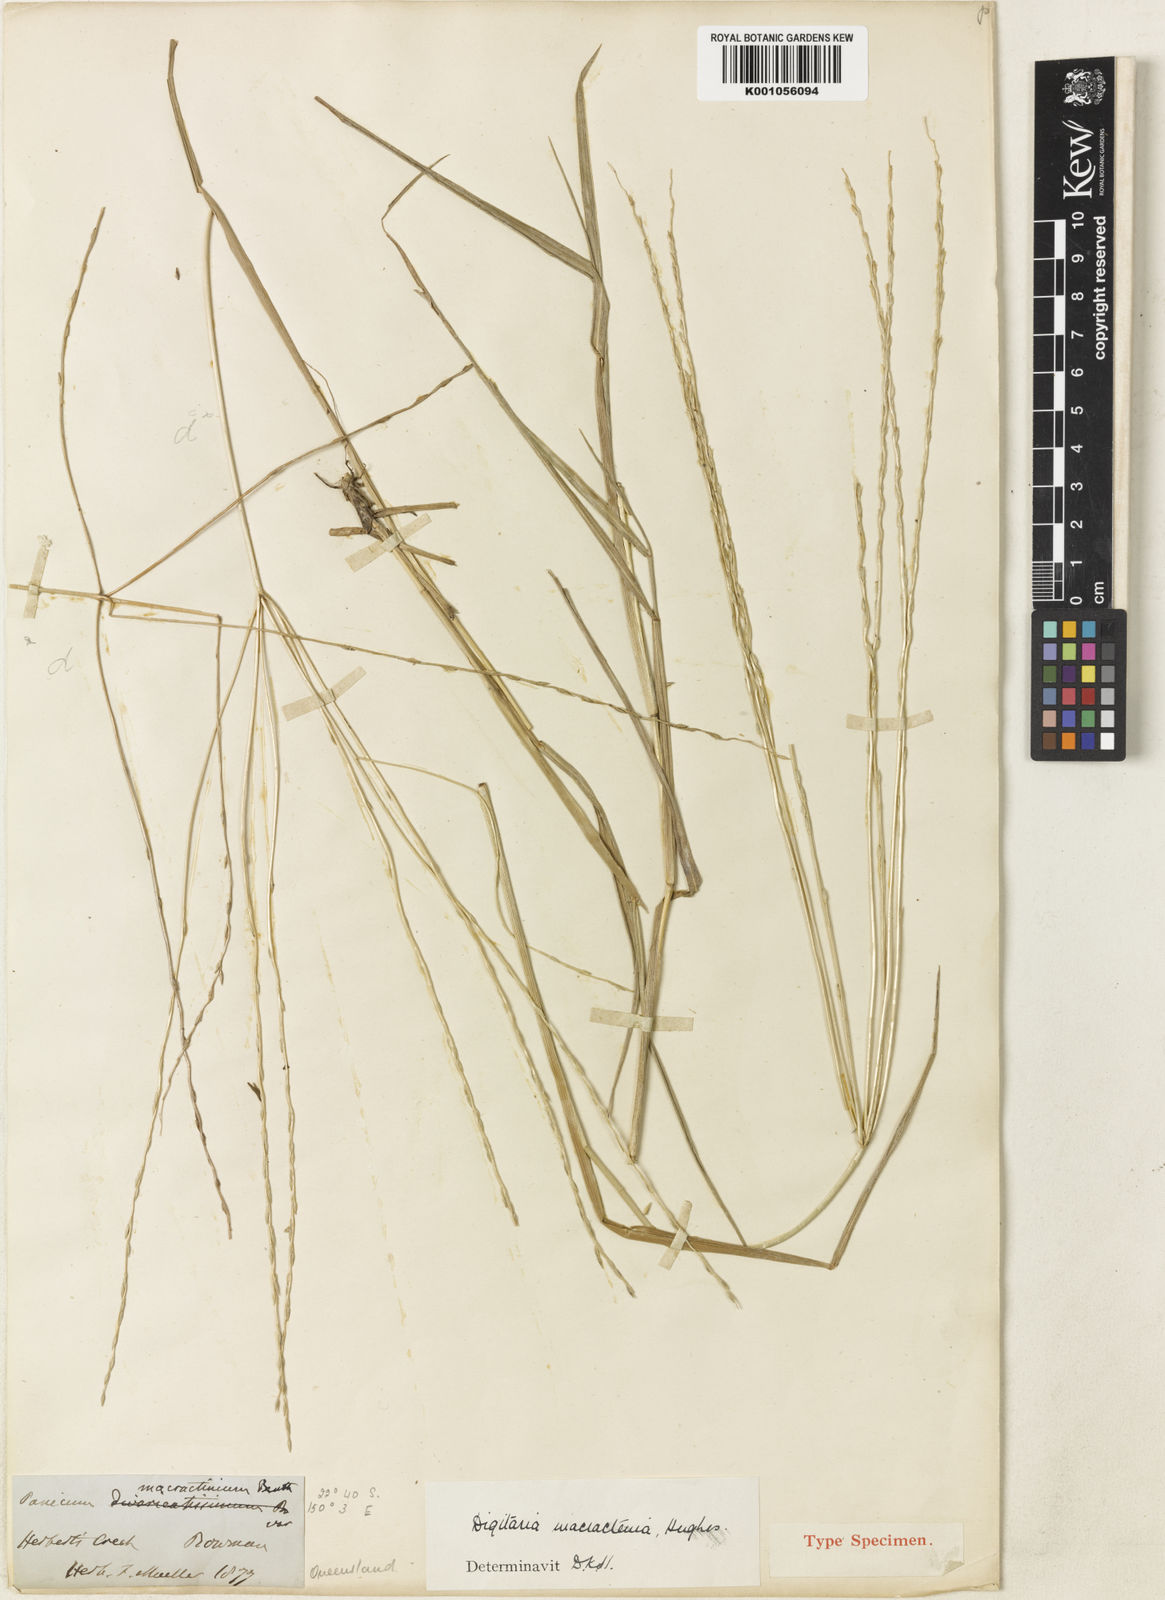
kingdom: Plantae
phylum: Tracheophyta
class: Liliopsida
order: Poales
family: Poaceae
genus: Digitaria
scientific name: Digitaria divaricatissima
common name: Crabgrass
